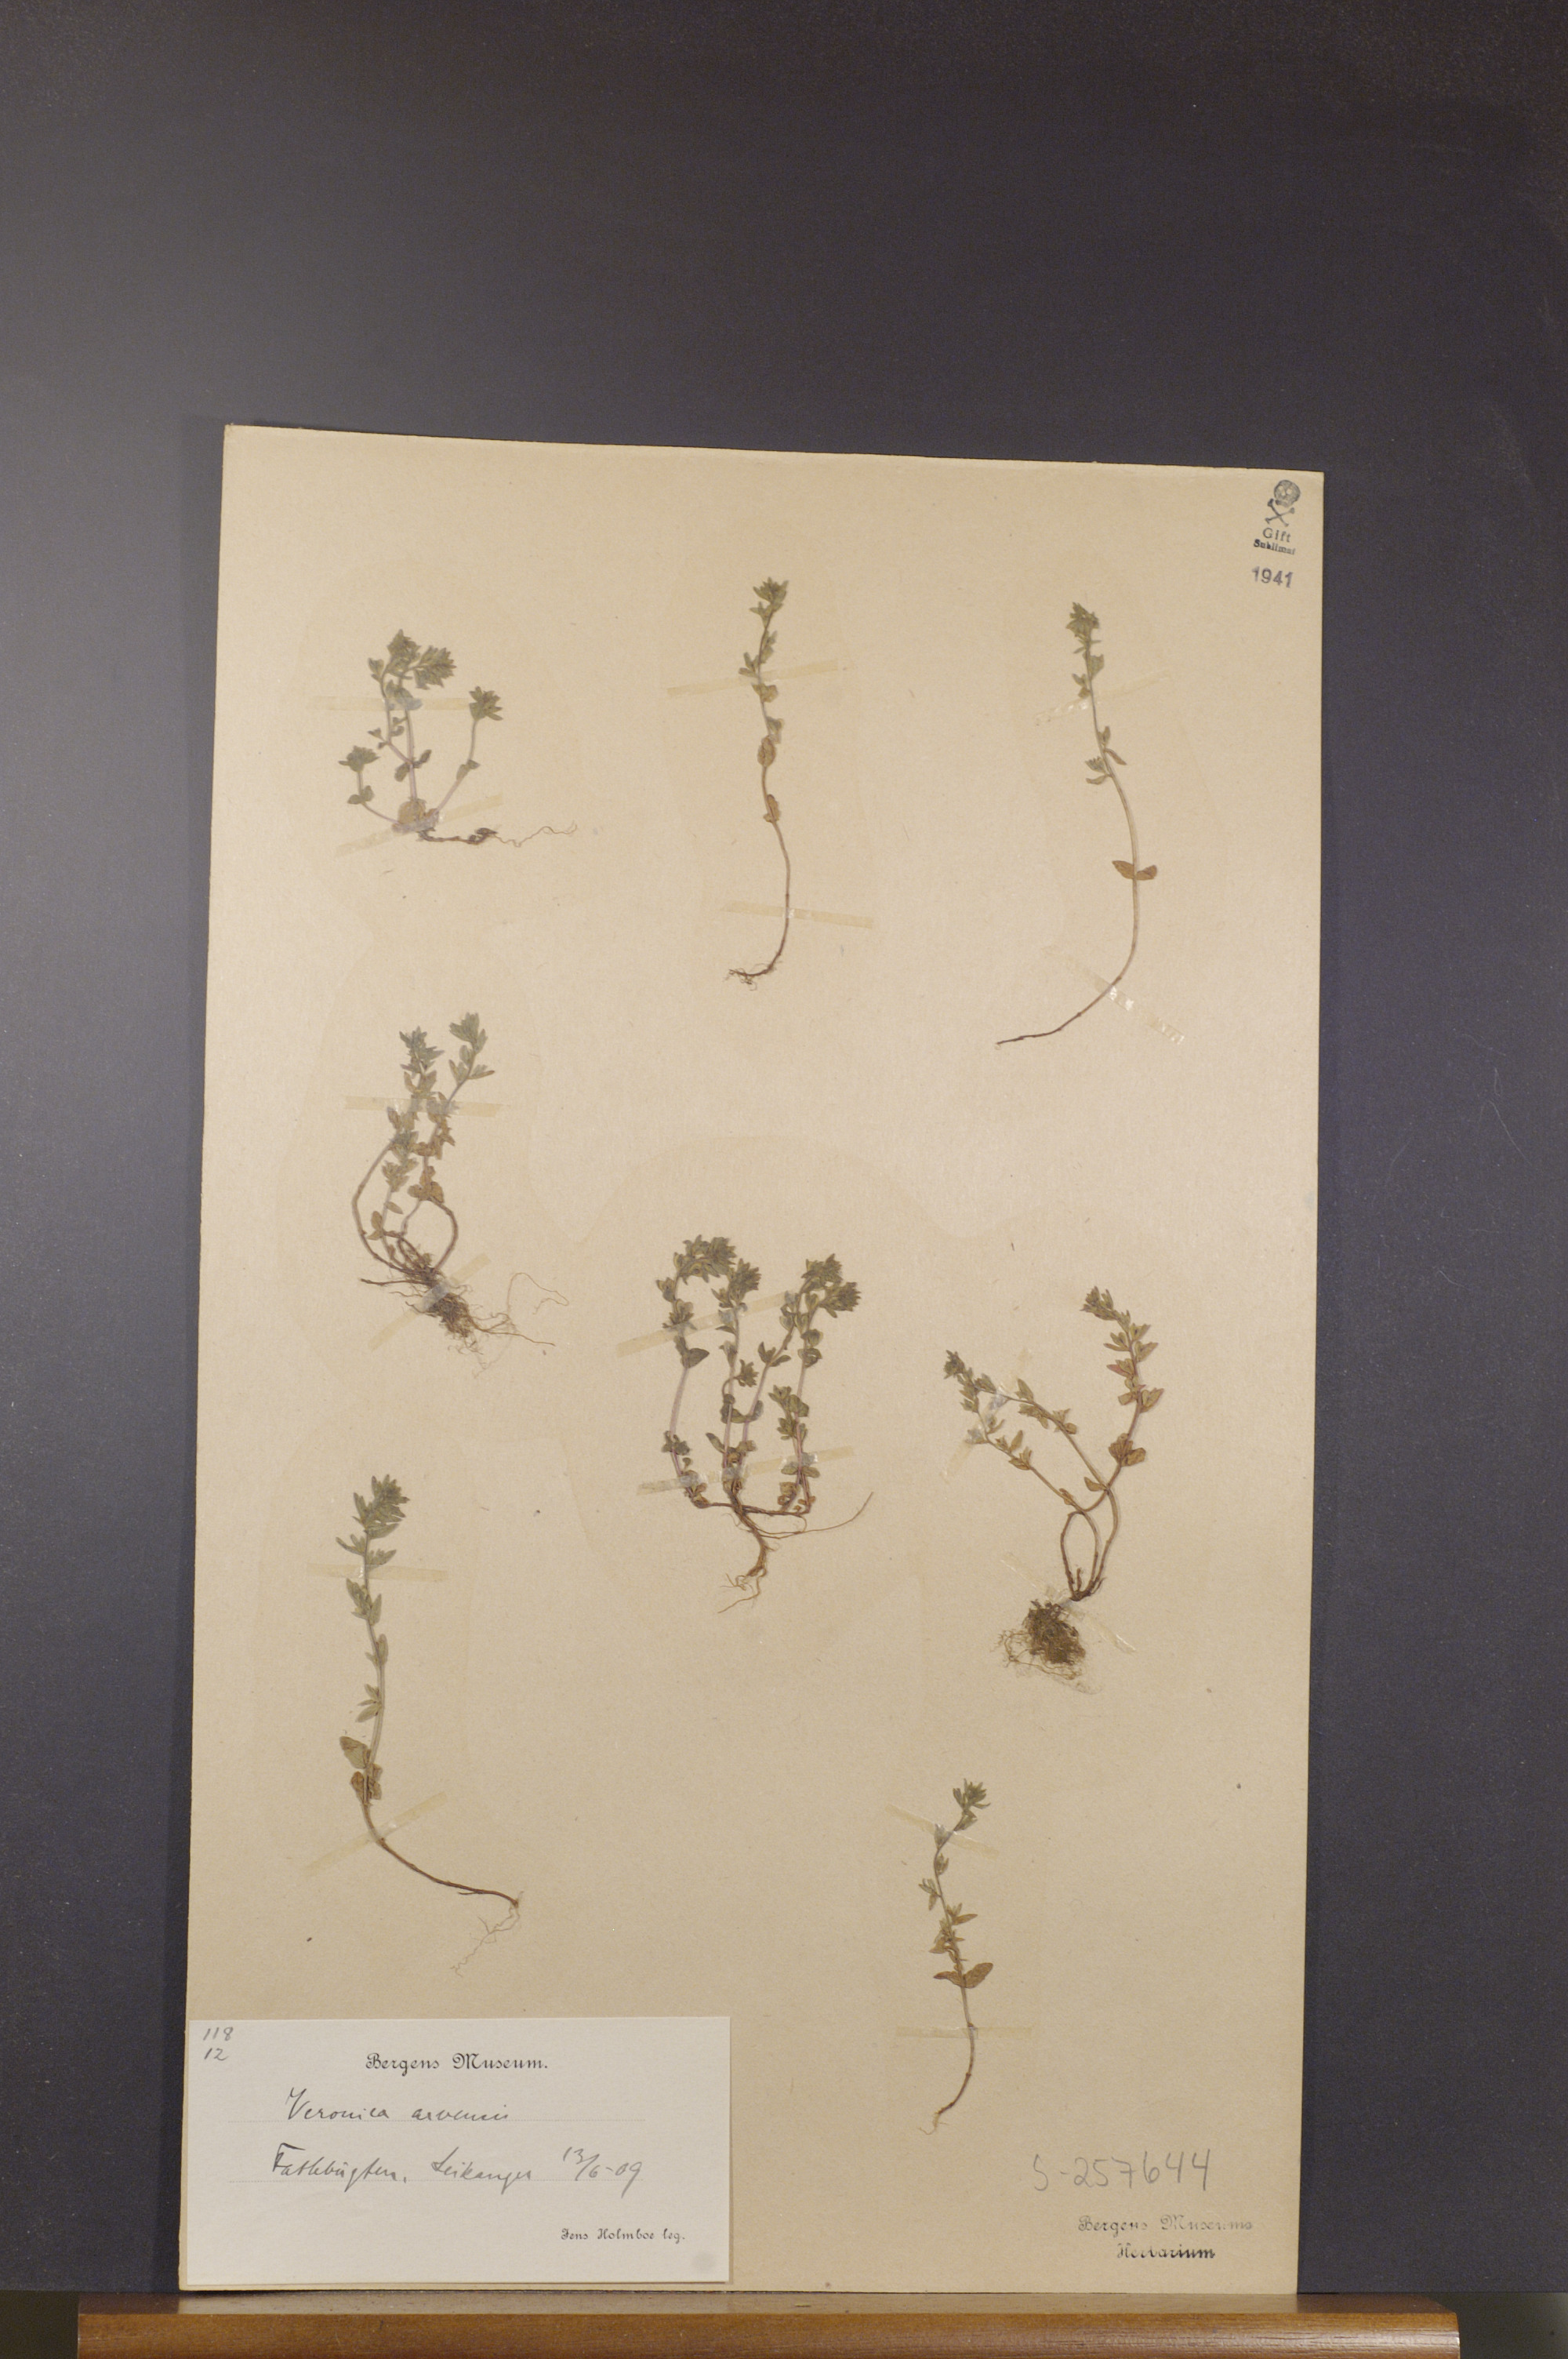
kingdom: Plantae
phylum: Tracheophyta
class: Magnoliopsida
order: Lamiales
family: Plantaginaceae
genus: Veronica
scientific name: Veronica arvensis
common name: Corn speedwell
